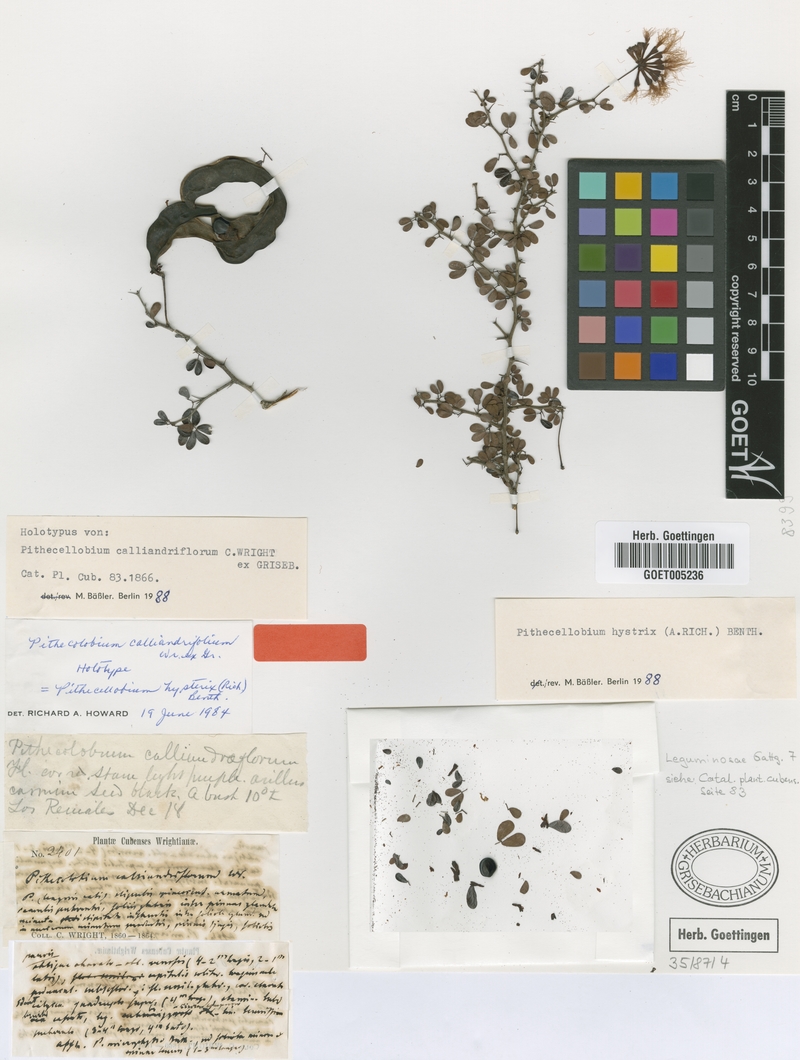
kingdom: Plantae
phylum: Tracheophyta
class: Magnoliopsida
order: Fabales
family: Fabaceae
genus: Pithecellobium
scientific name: Pithecellobium histrix
